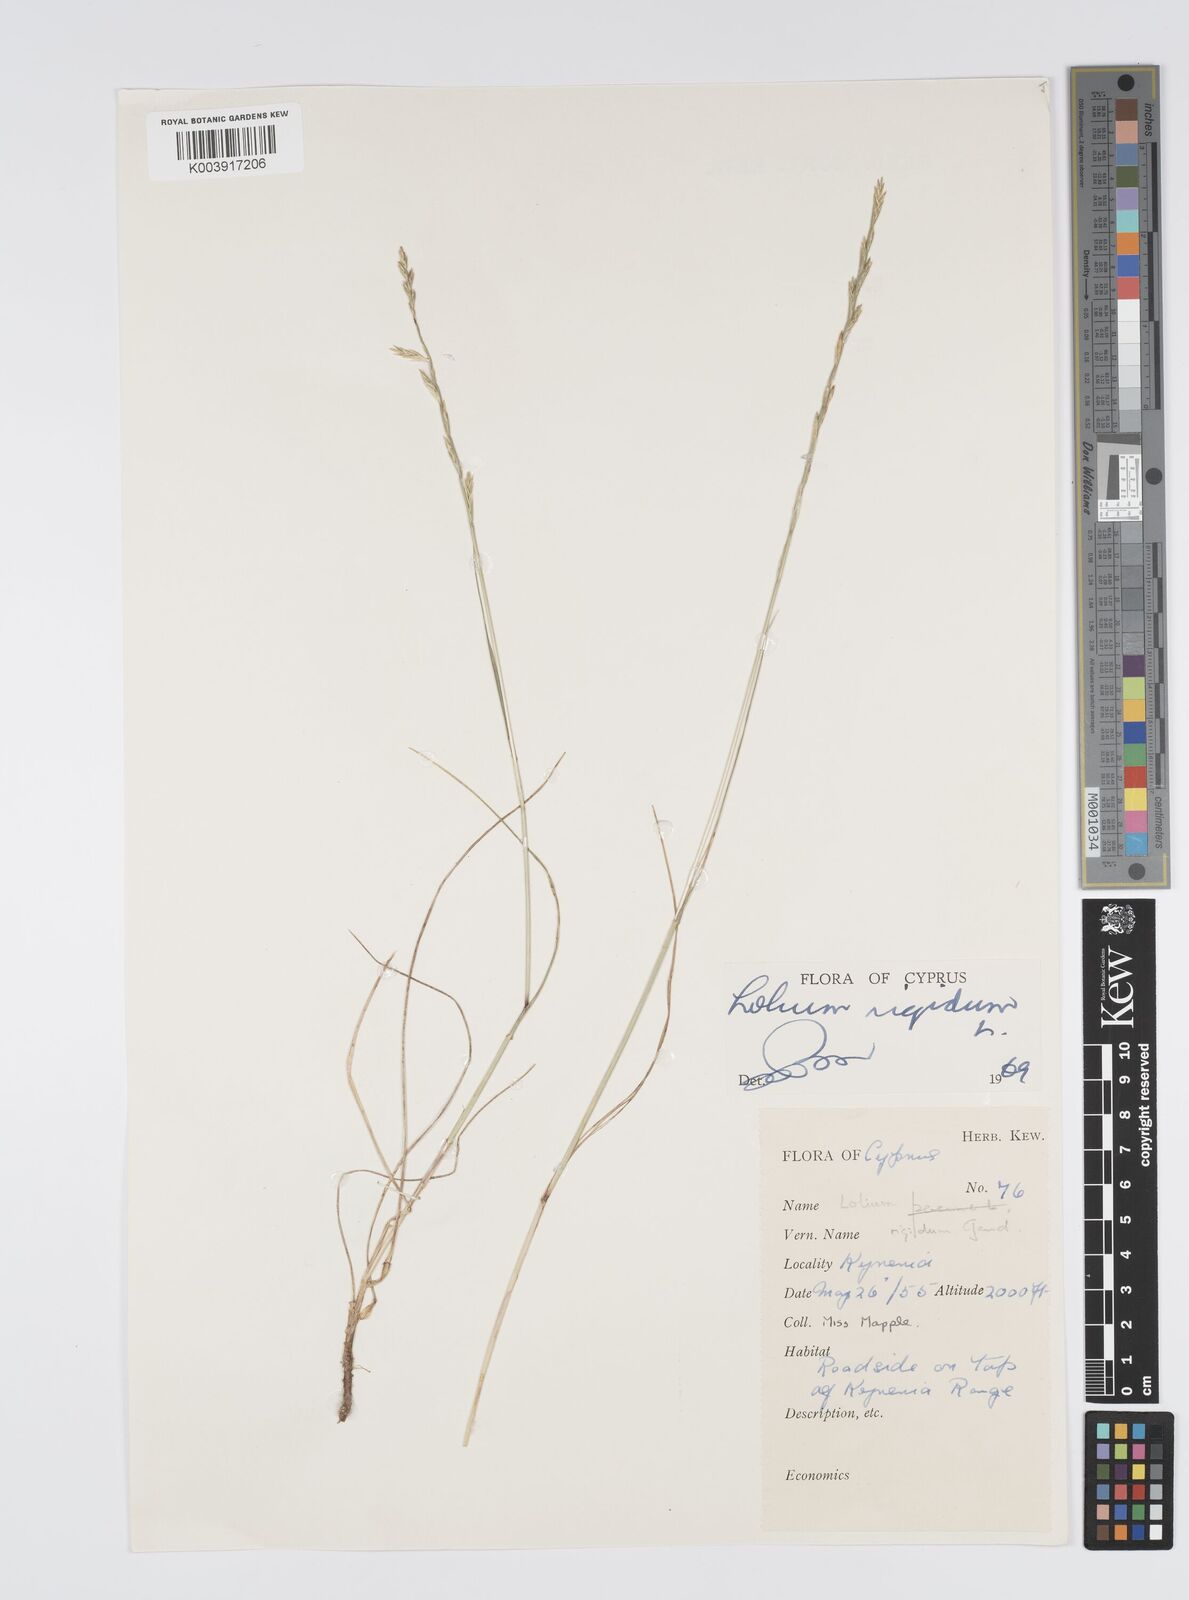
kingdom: Plantae
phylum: Tracheophyta
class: Liliopsida
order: Poales
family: Poaceae
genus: Lolium
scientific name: Lolium rigidum
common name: Wimmera ryegrass
